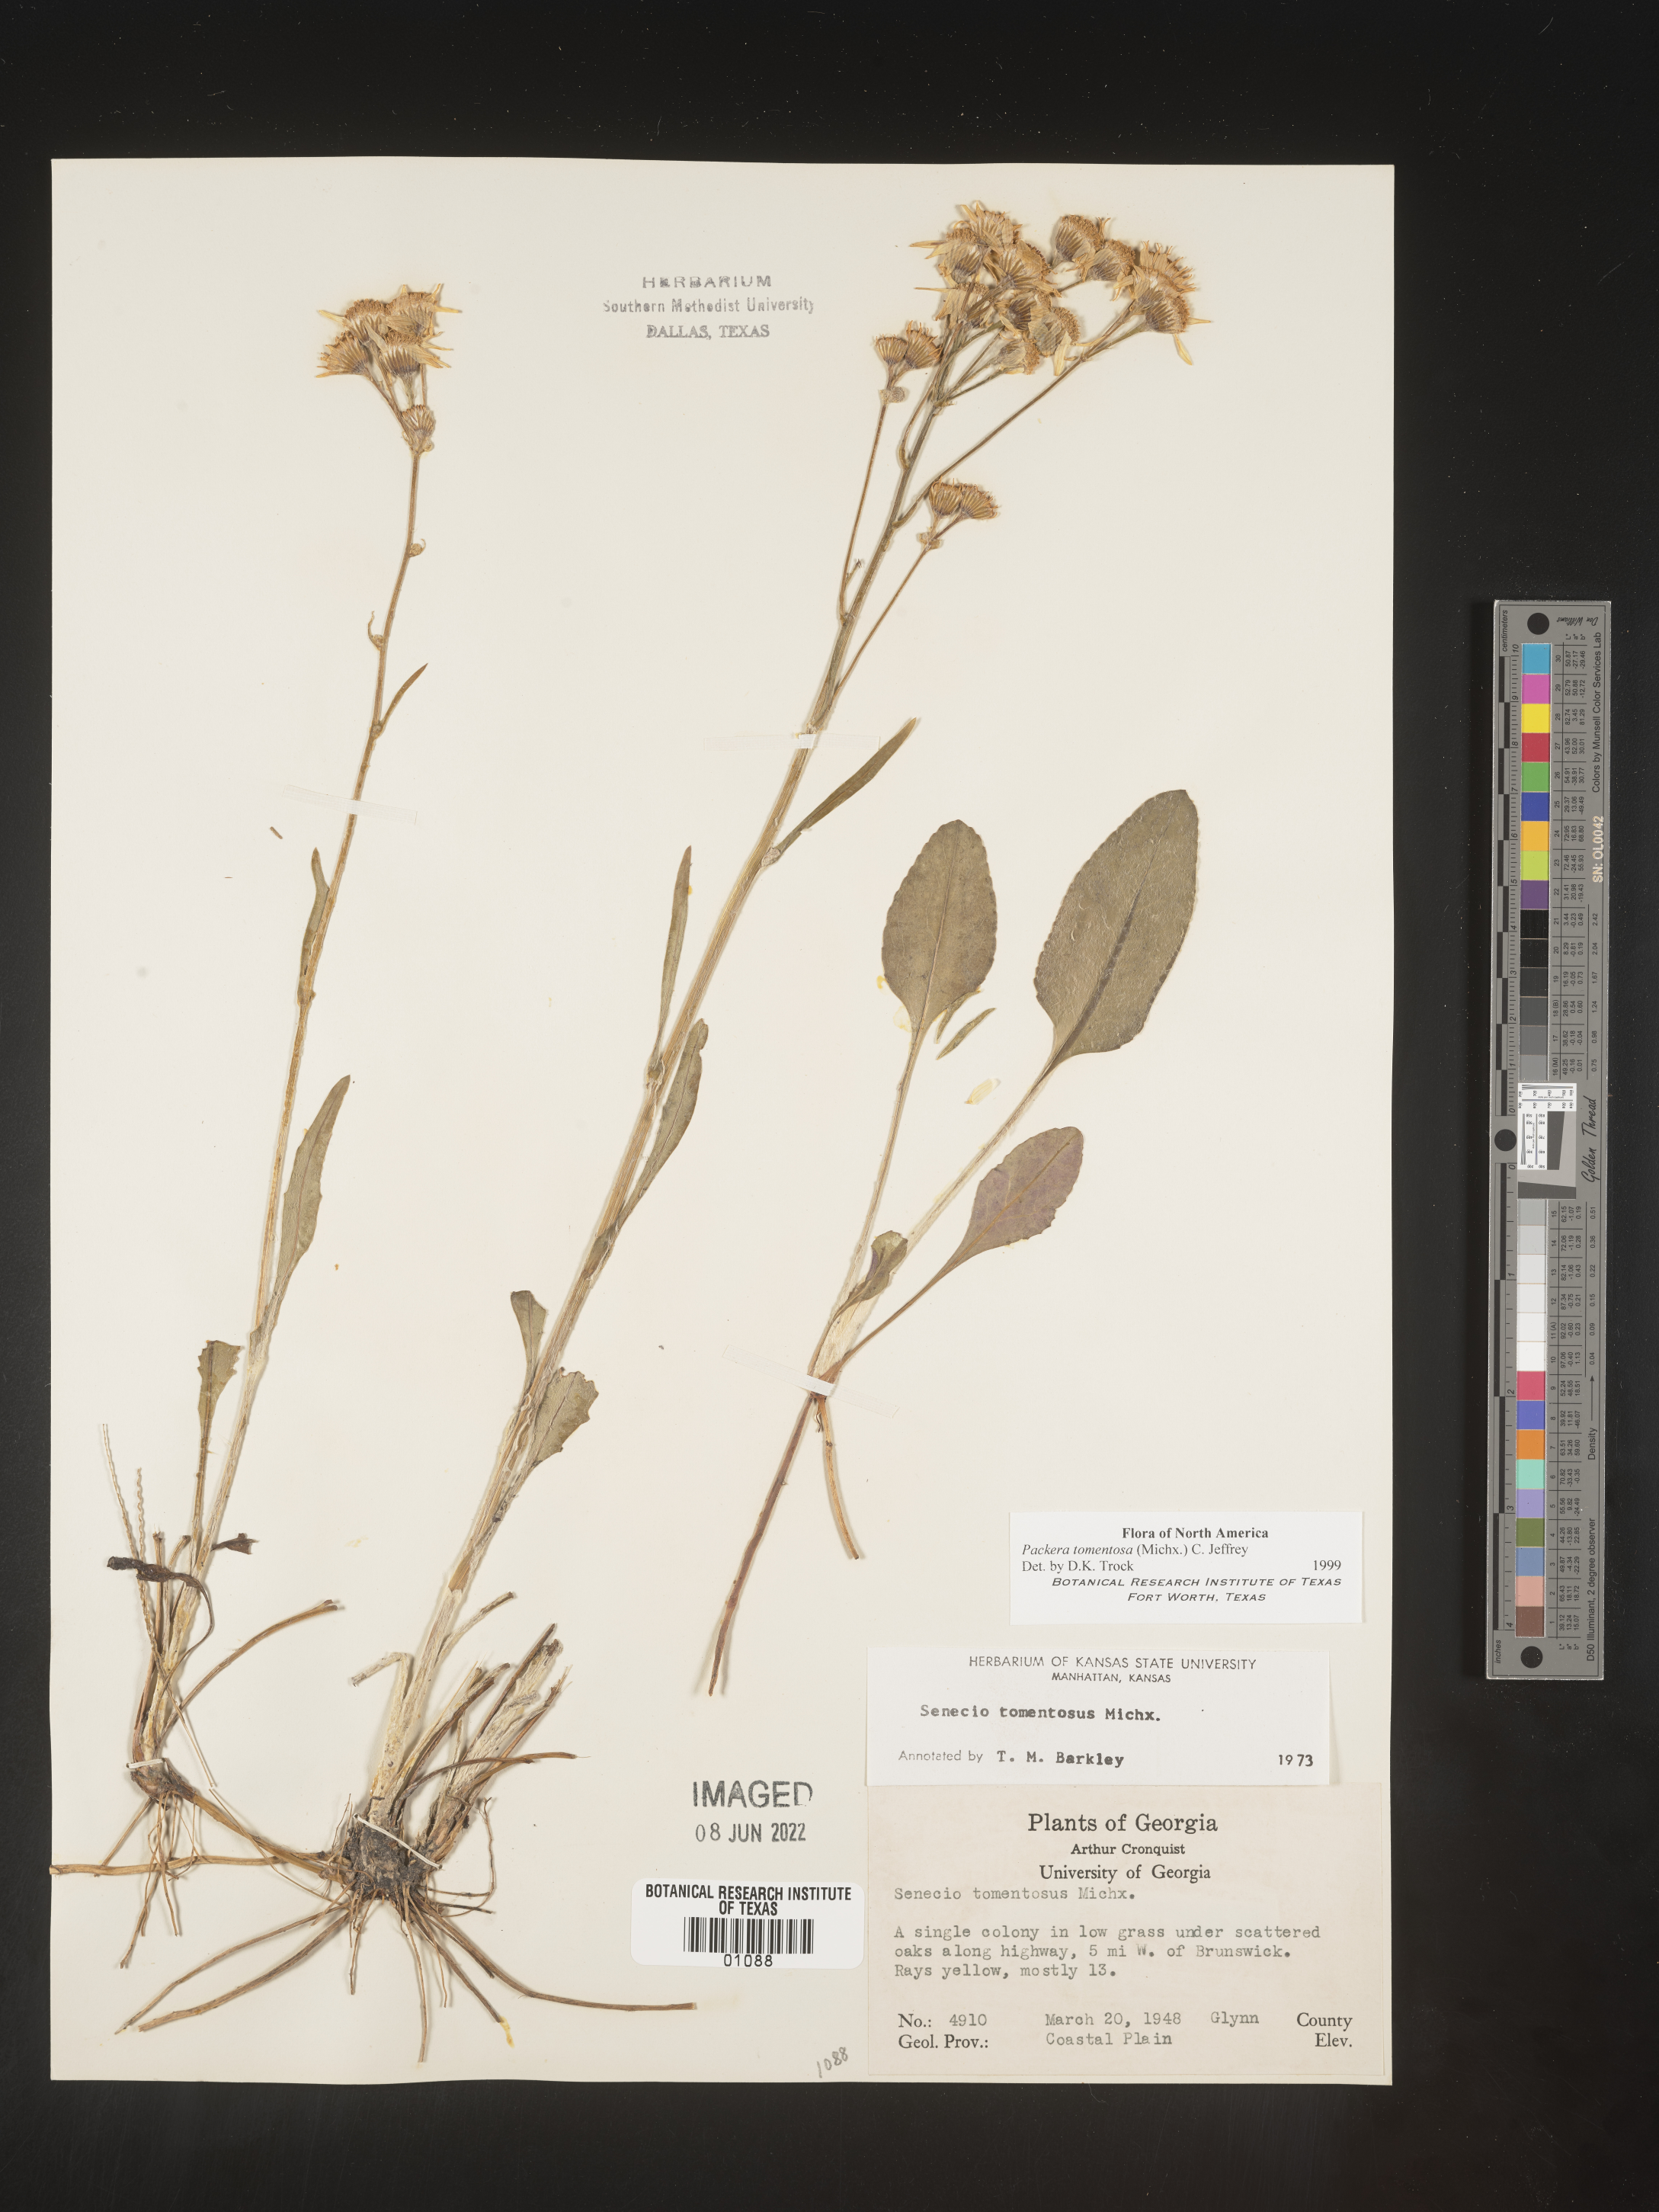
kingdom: Plantae
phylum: Tracheophyta
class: Magnoliopsida
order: Asterales
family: Asteraceae
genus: Packera
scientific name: Packera dubia
